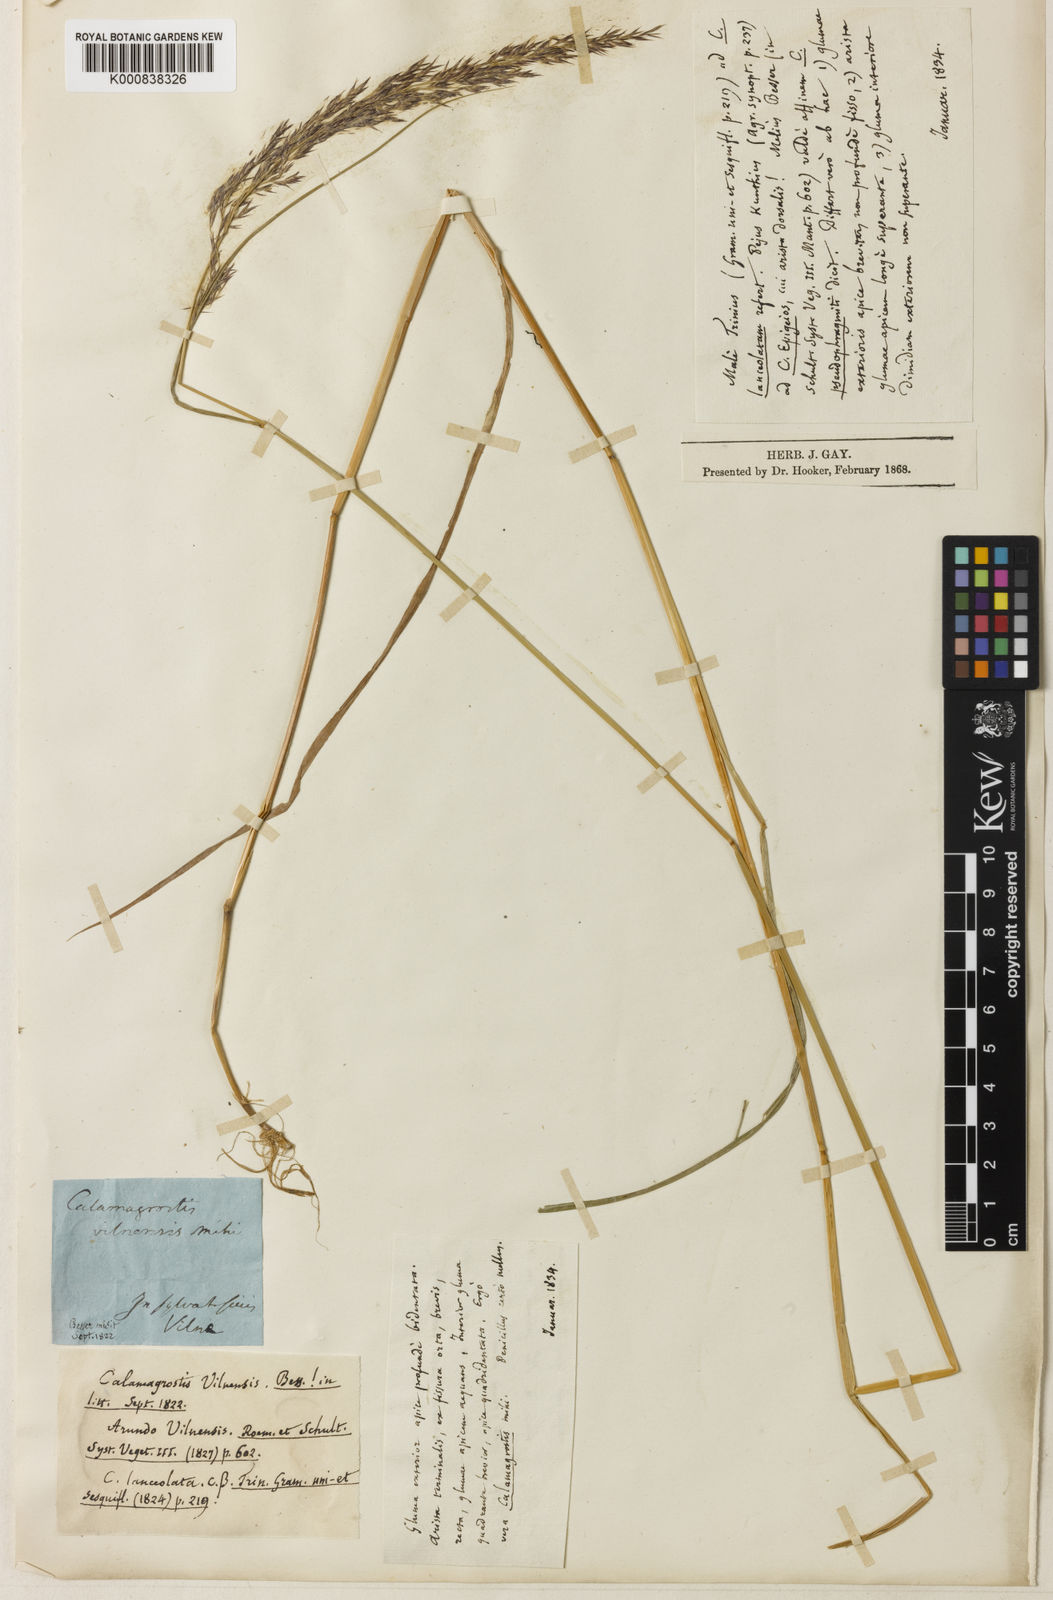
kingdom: Plantae
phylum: Tracheophyta
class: Liliopsida
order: Poales
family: Poaceae
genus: Calamagrostis
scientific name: Calamagrostis canescens
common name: Purple small-reed
